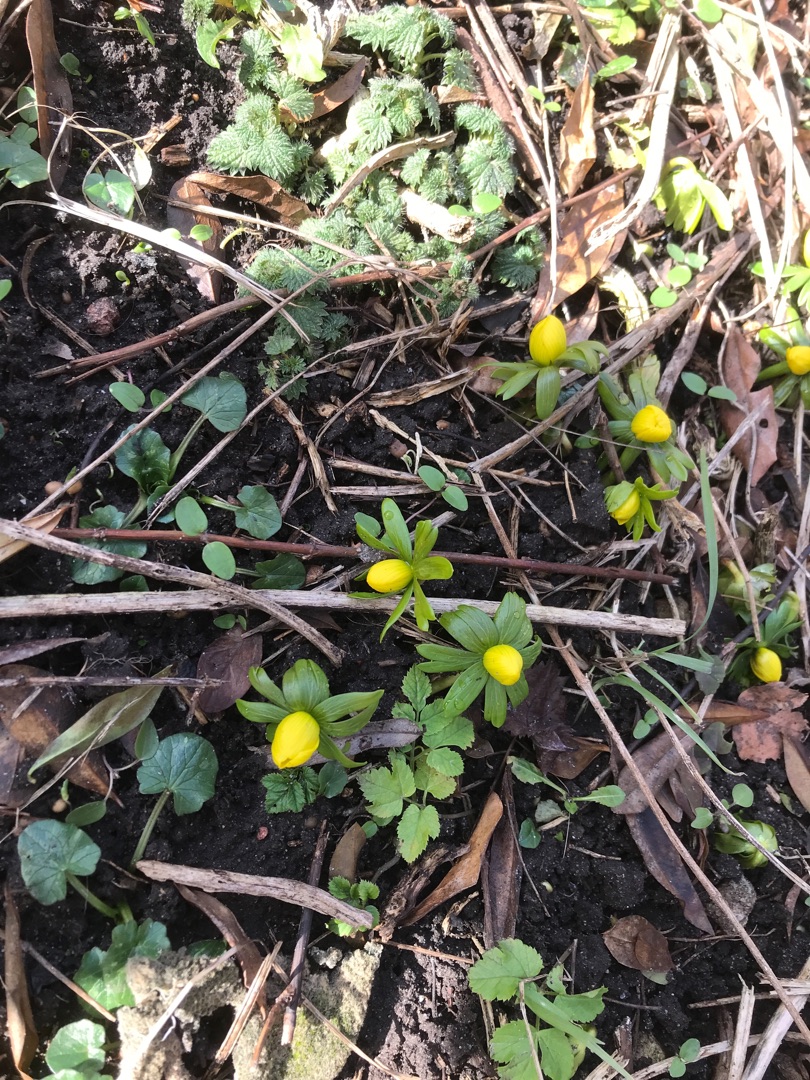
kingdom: Plantae
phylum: Tracheophyta
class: Magnoliopsida
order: Ranunculales
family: Ranunculaceae
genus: Eranthis
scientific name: Eranthis hyemalis
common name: Erantis
